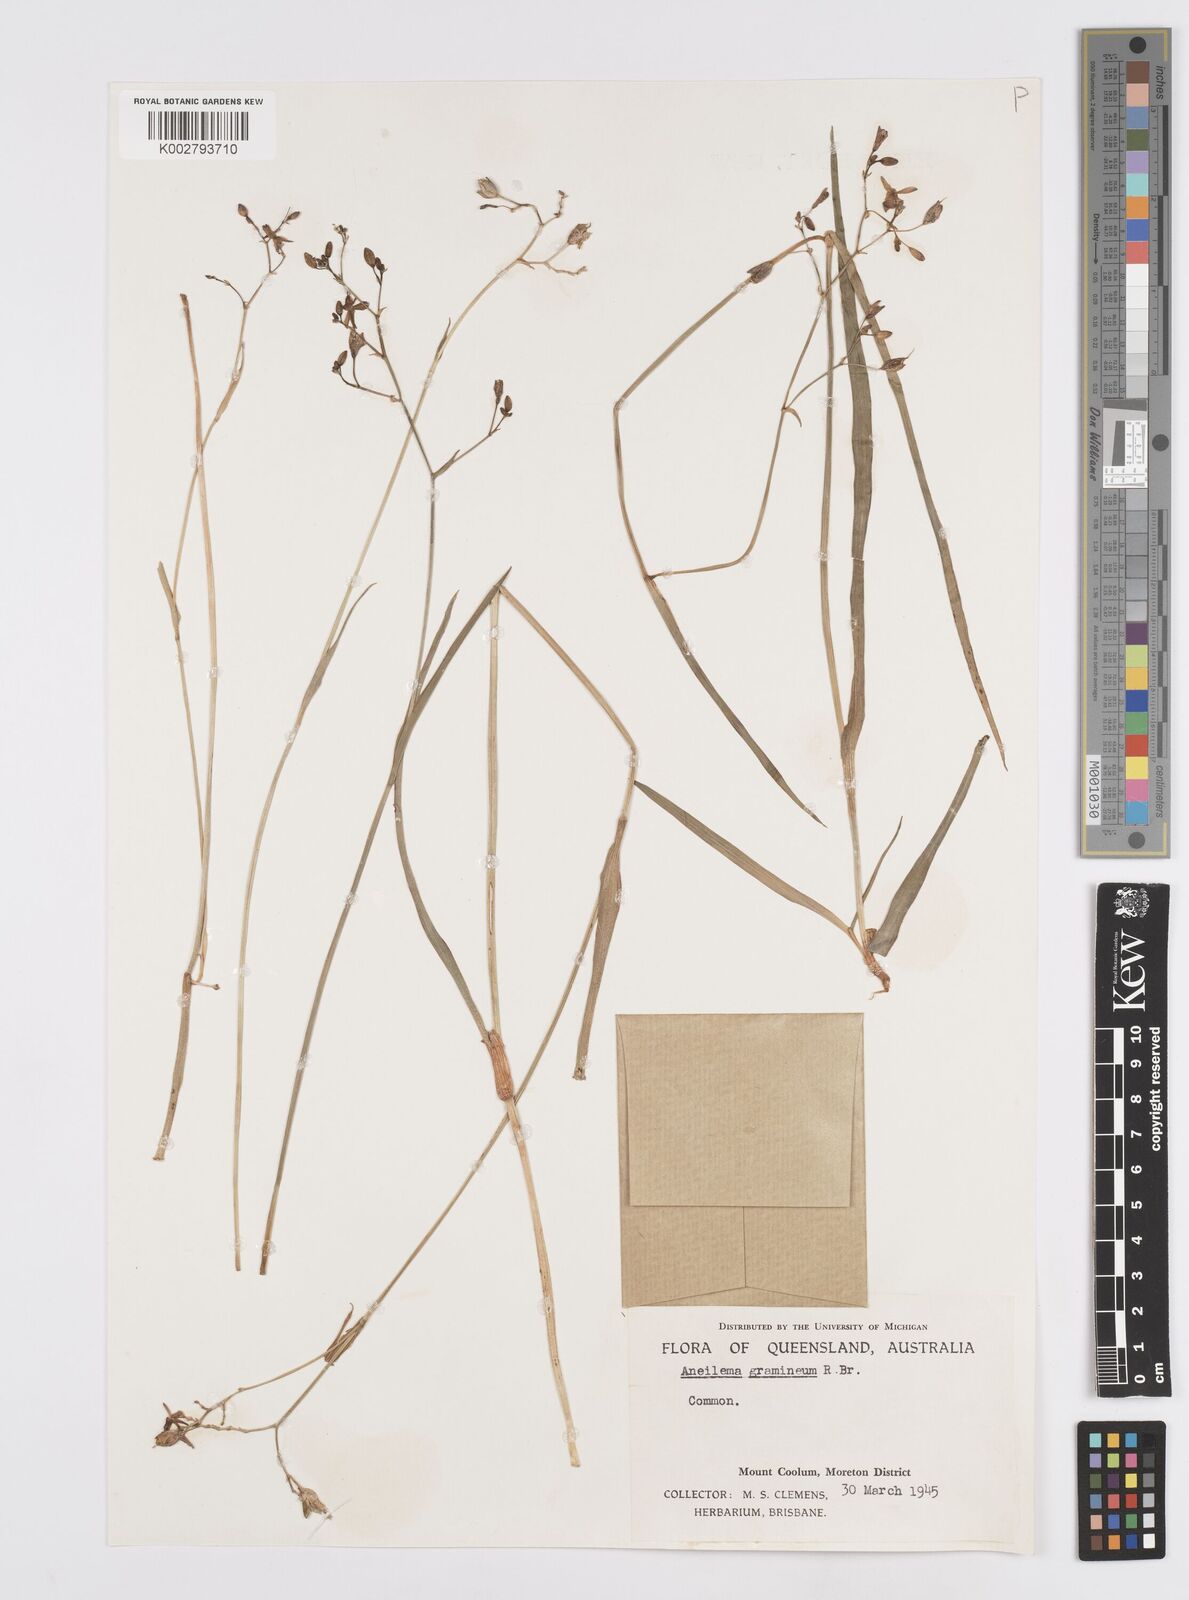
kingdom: Plantae
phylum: Tracheophyta
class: Liliopsida
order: Commelinales
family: Commelinaceae
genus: Murdannia
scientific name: Murdannia graminea
